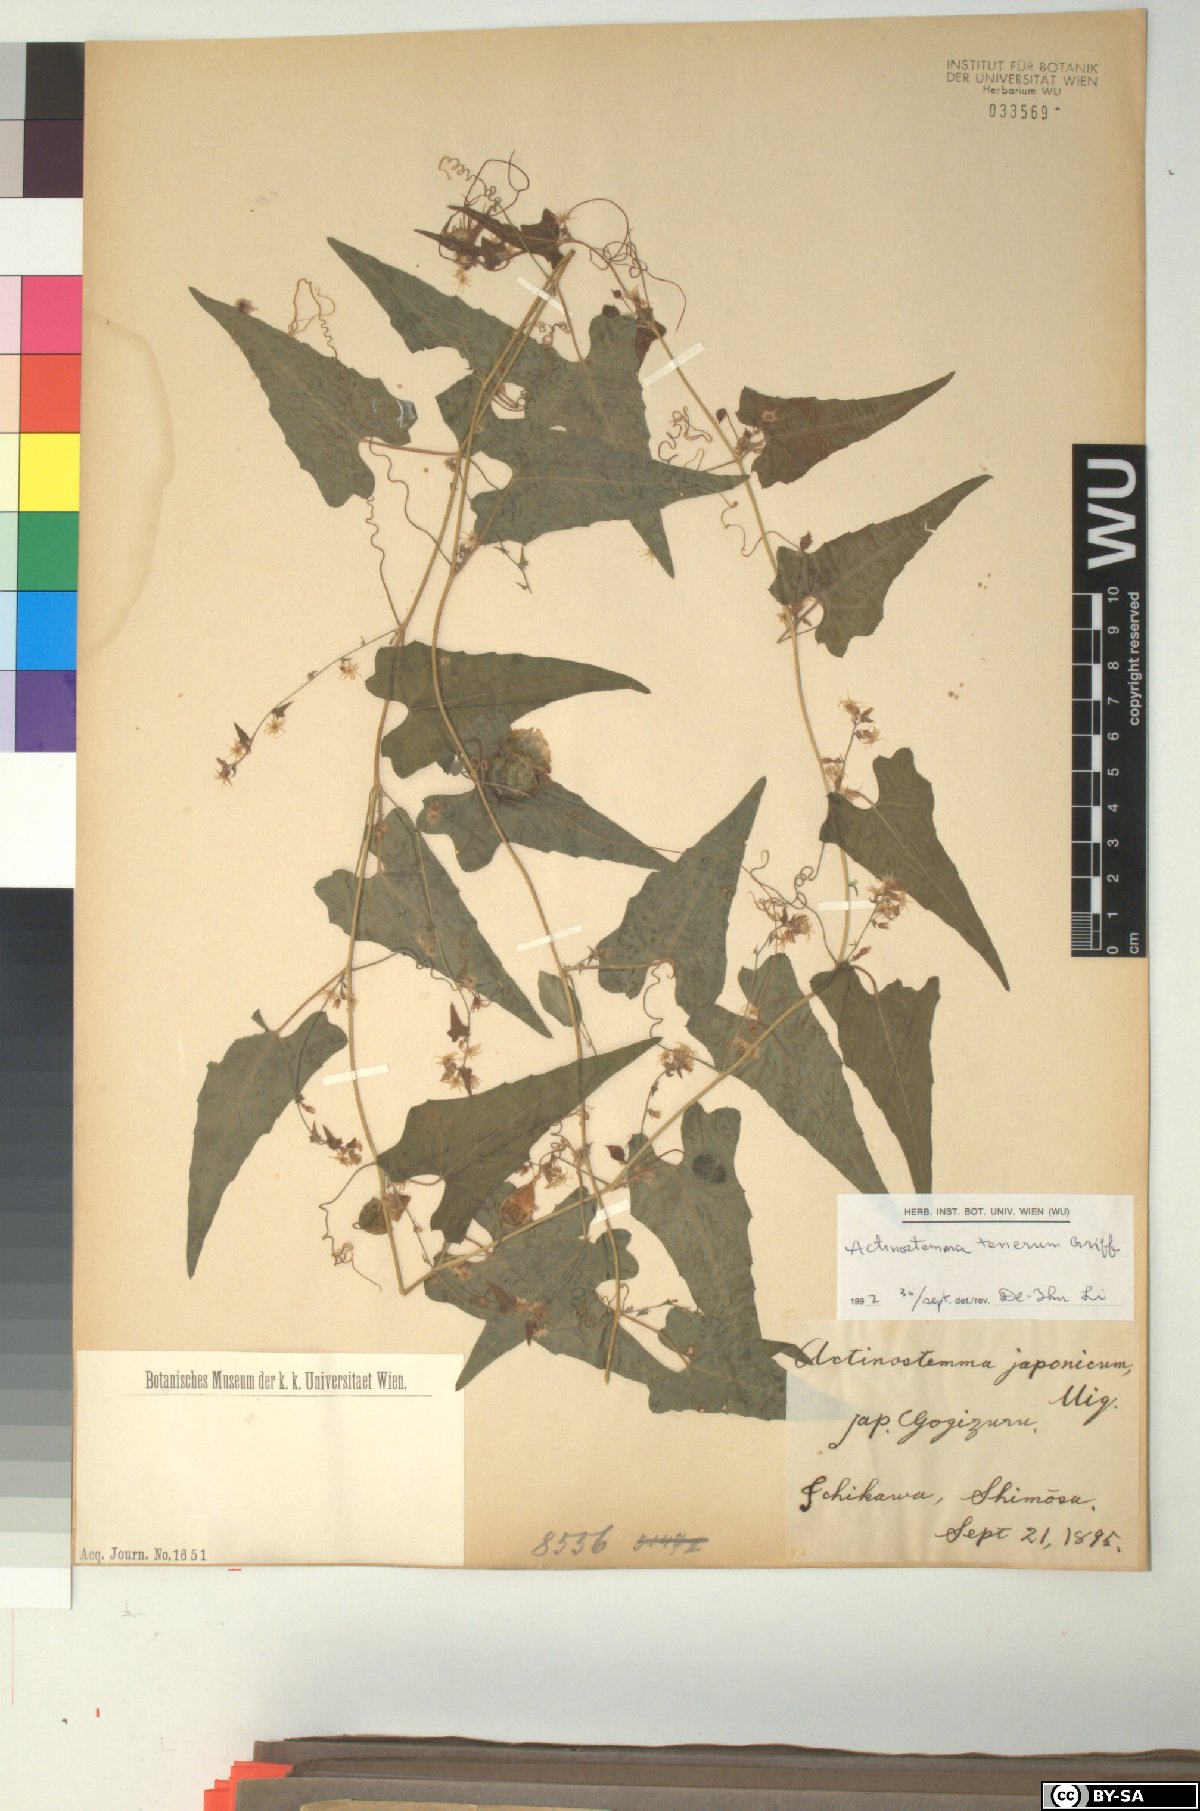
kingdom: Plantae
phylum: Tracheophyta
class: Magnoliopsida
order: Cucurbitales
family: Cucurbitaceae
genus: Actinostemma
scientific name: Actinostemma tenerum
